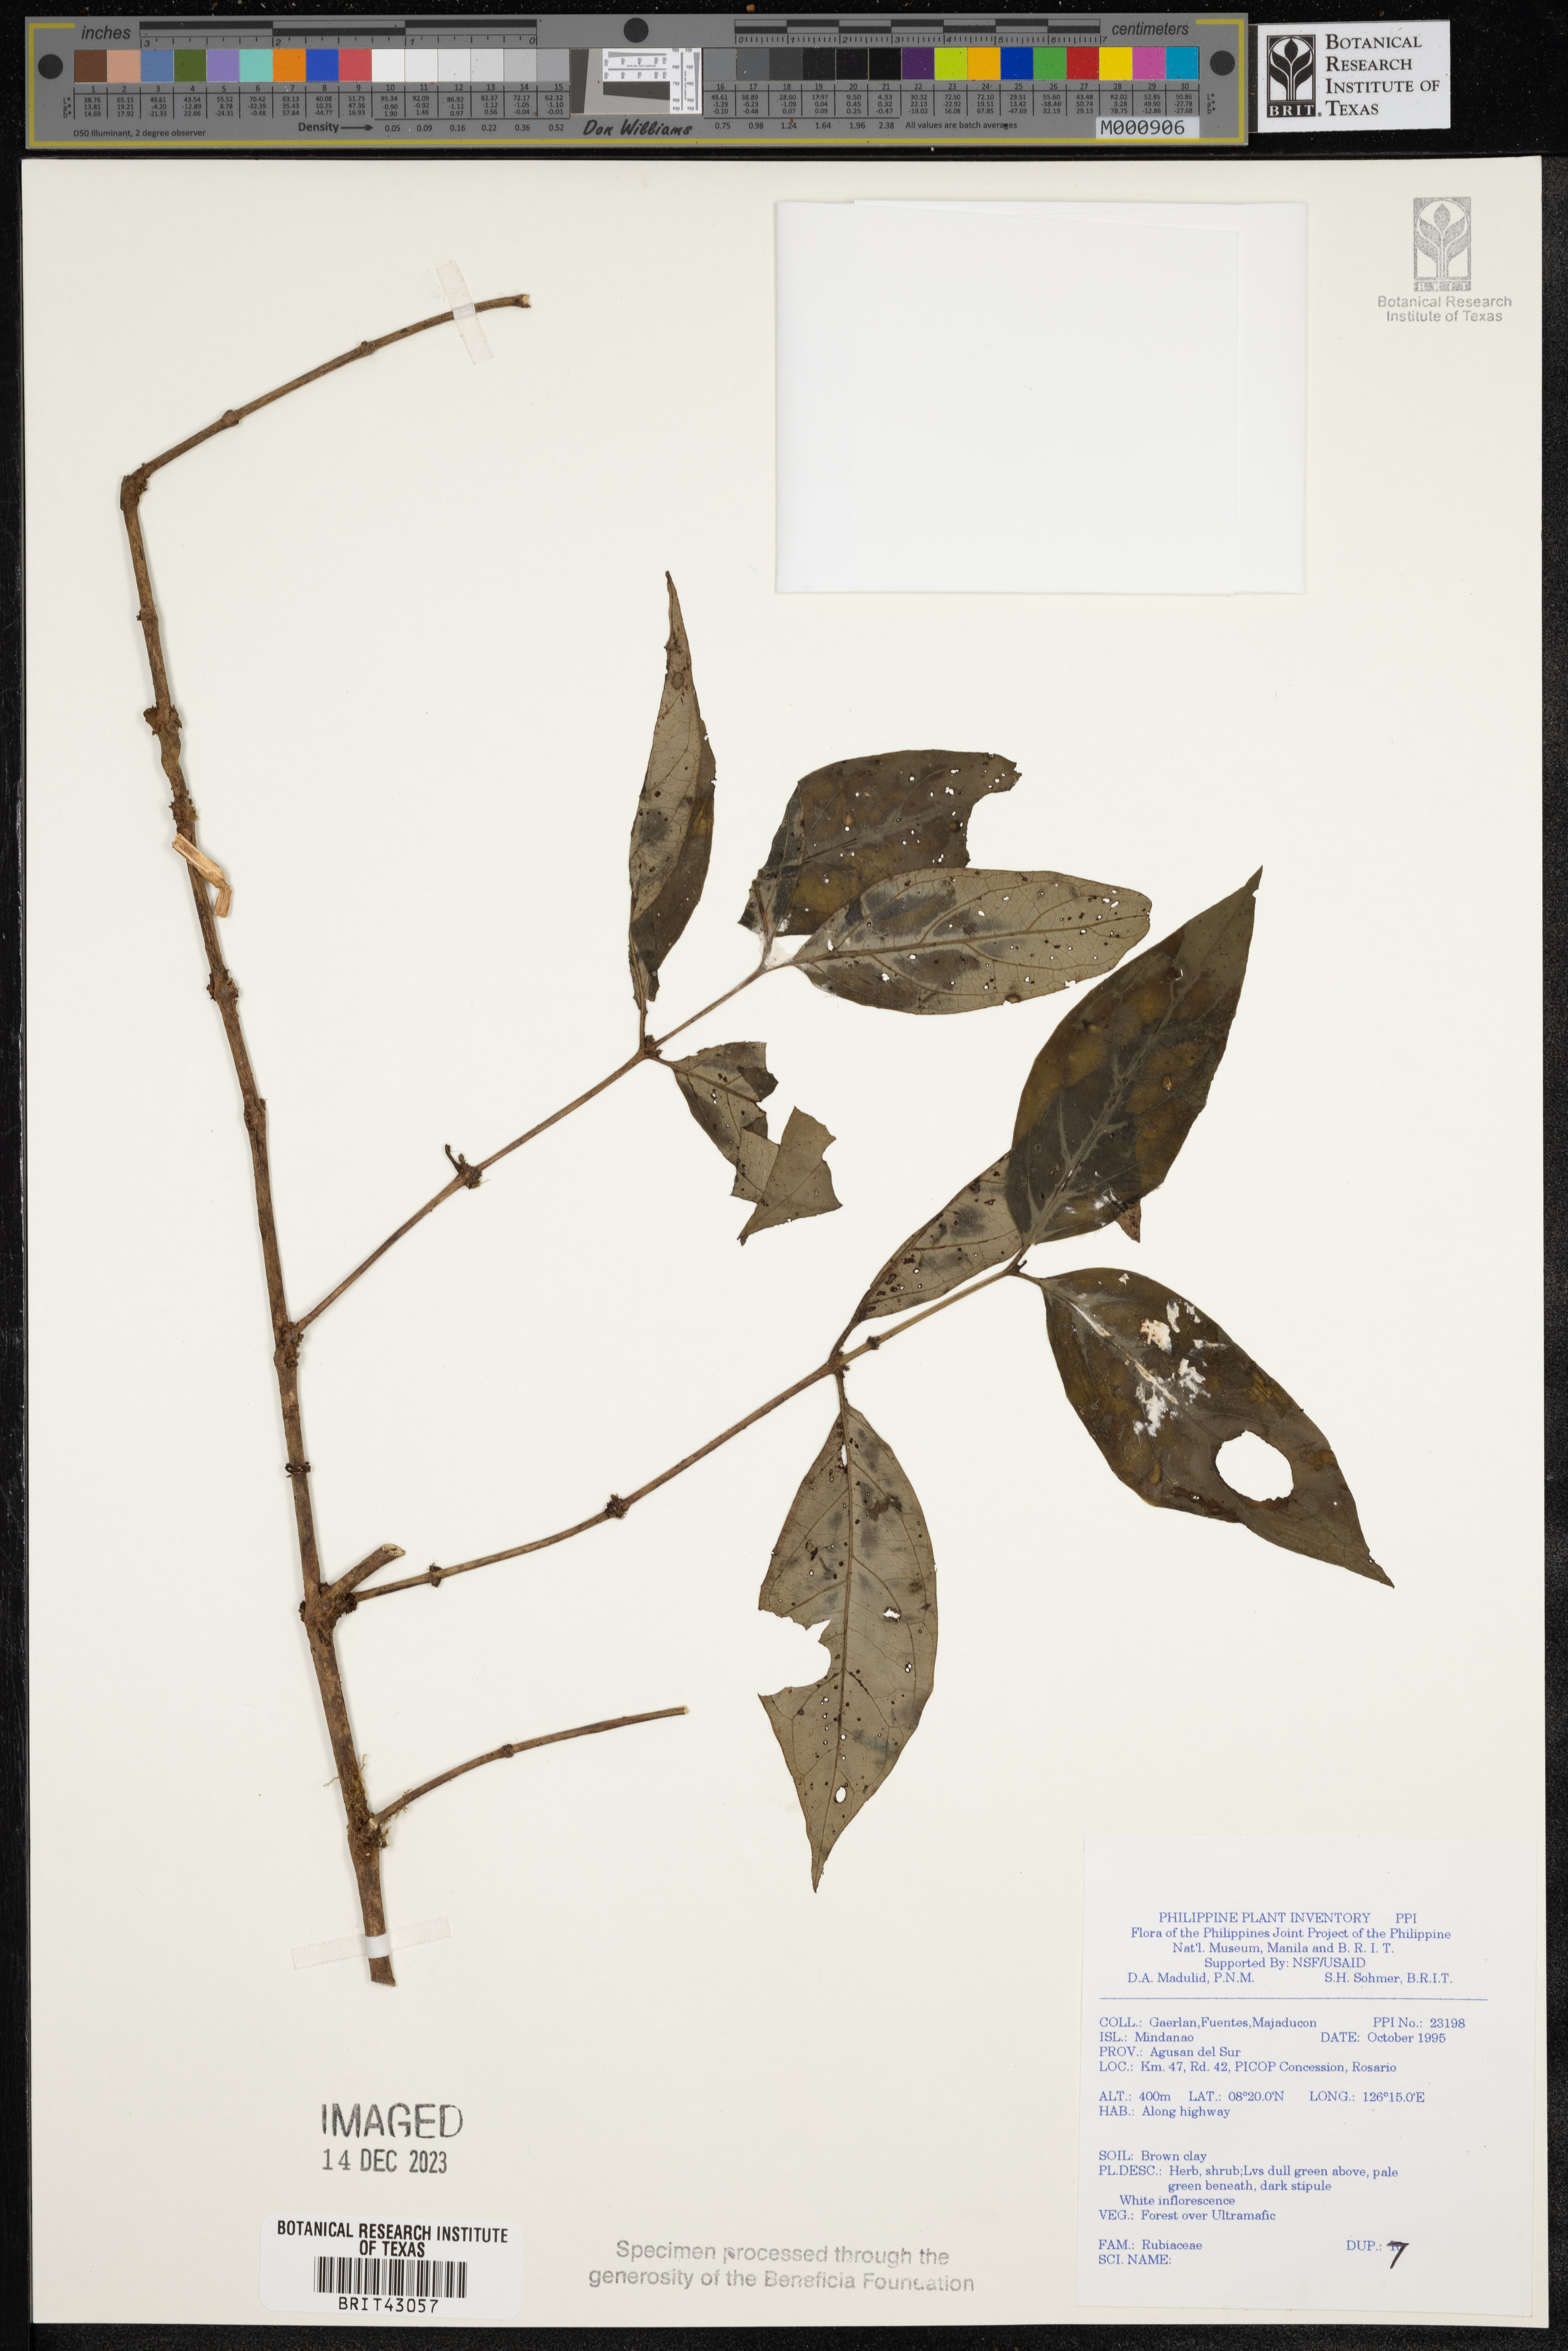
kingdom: Plantae
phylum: Tracheophyta
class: Magnoliopsida
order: Gentianales
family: Rubiaceae
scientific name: Rubiaceae
